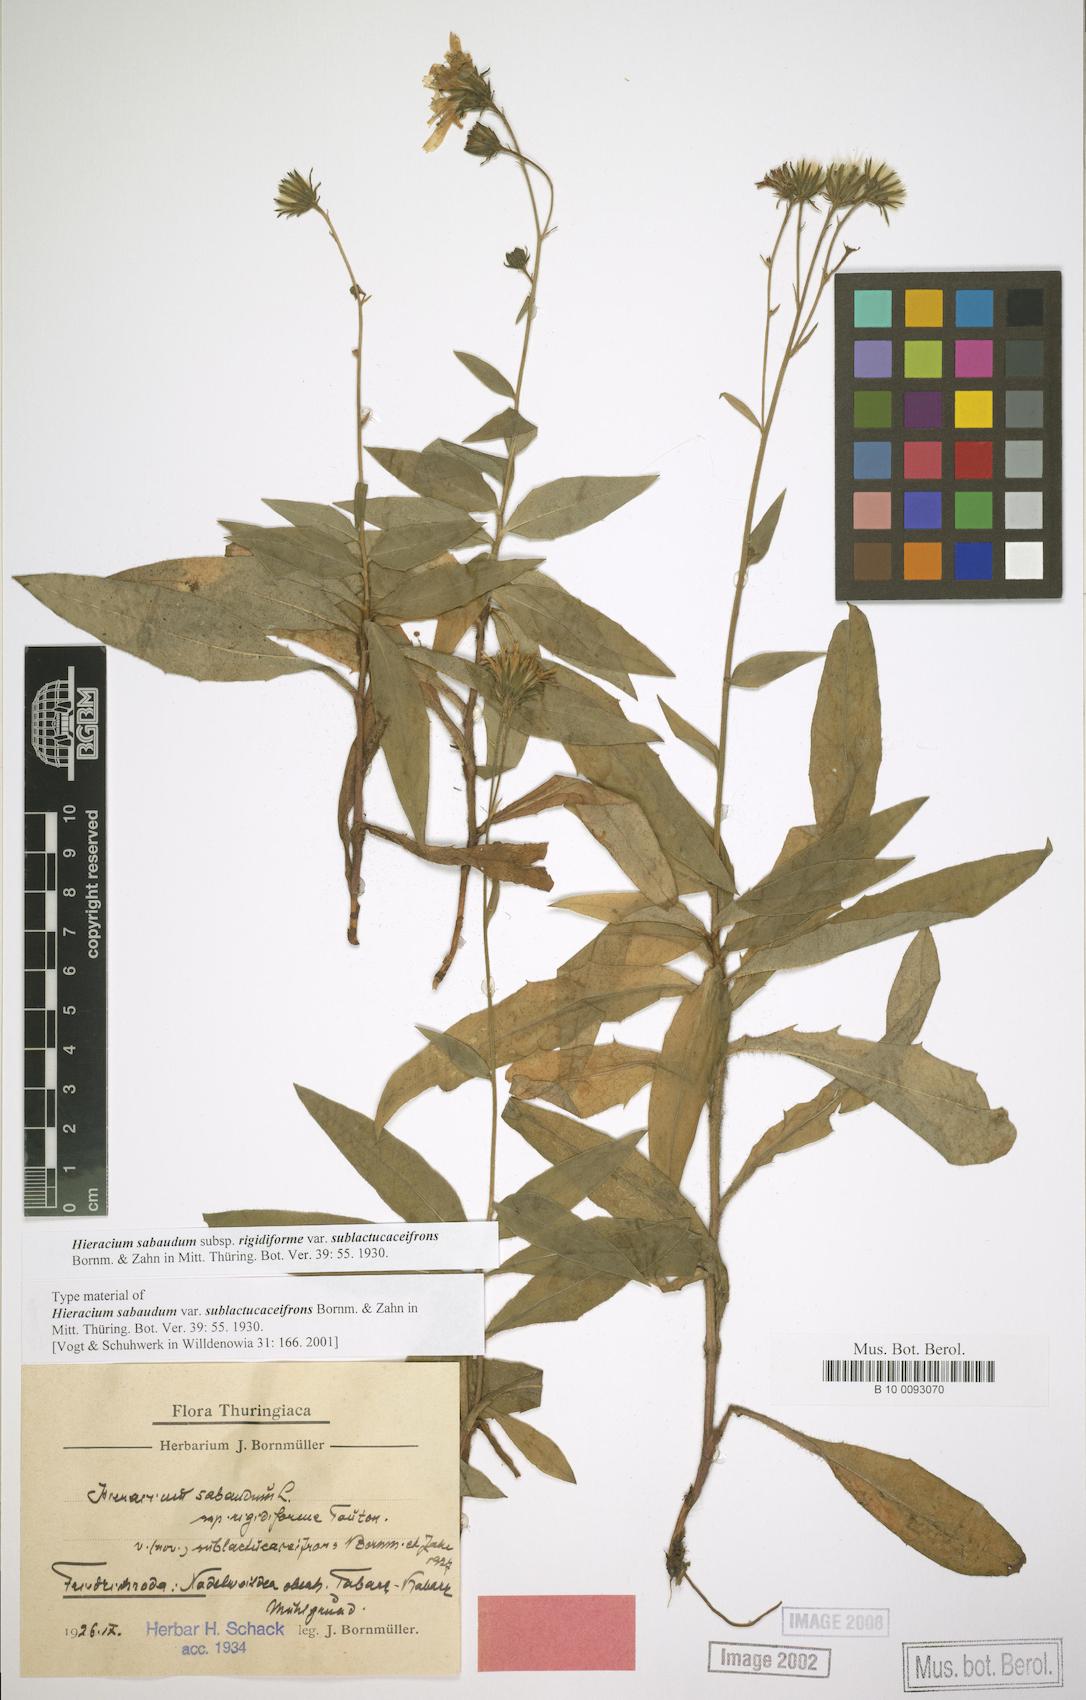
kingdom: Plantae
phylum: Tracheophyta
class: Magnoliopsida
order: Asterales
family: Asteraceae
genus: Hieracium
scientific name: Hieracium sabaudum
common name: New england hawkweed
